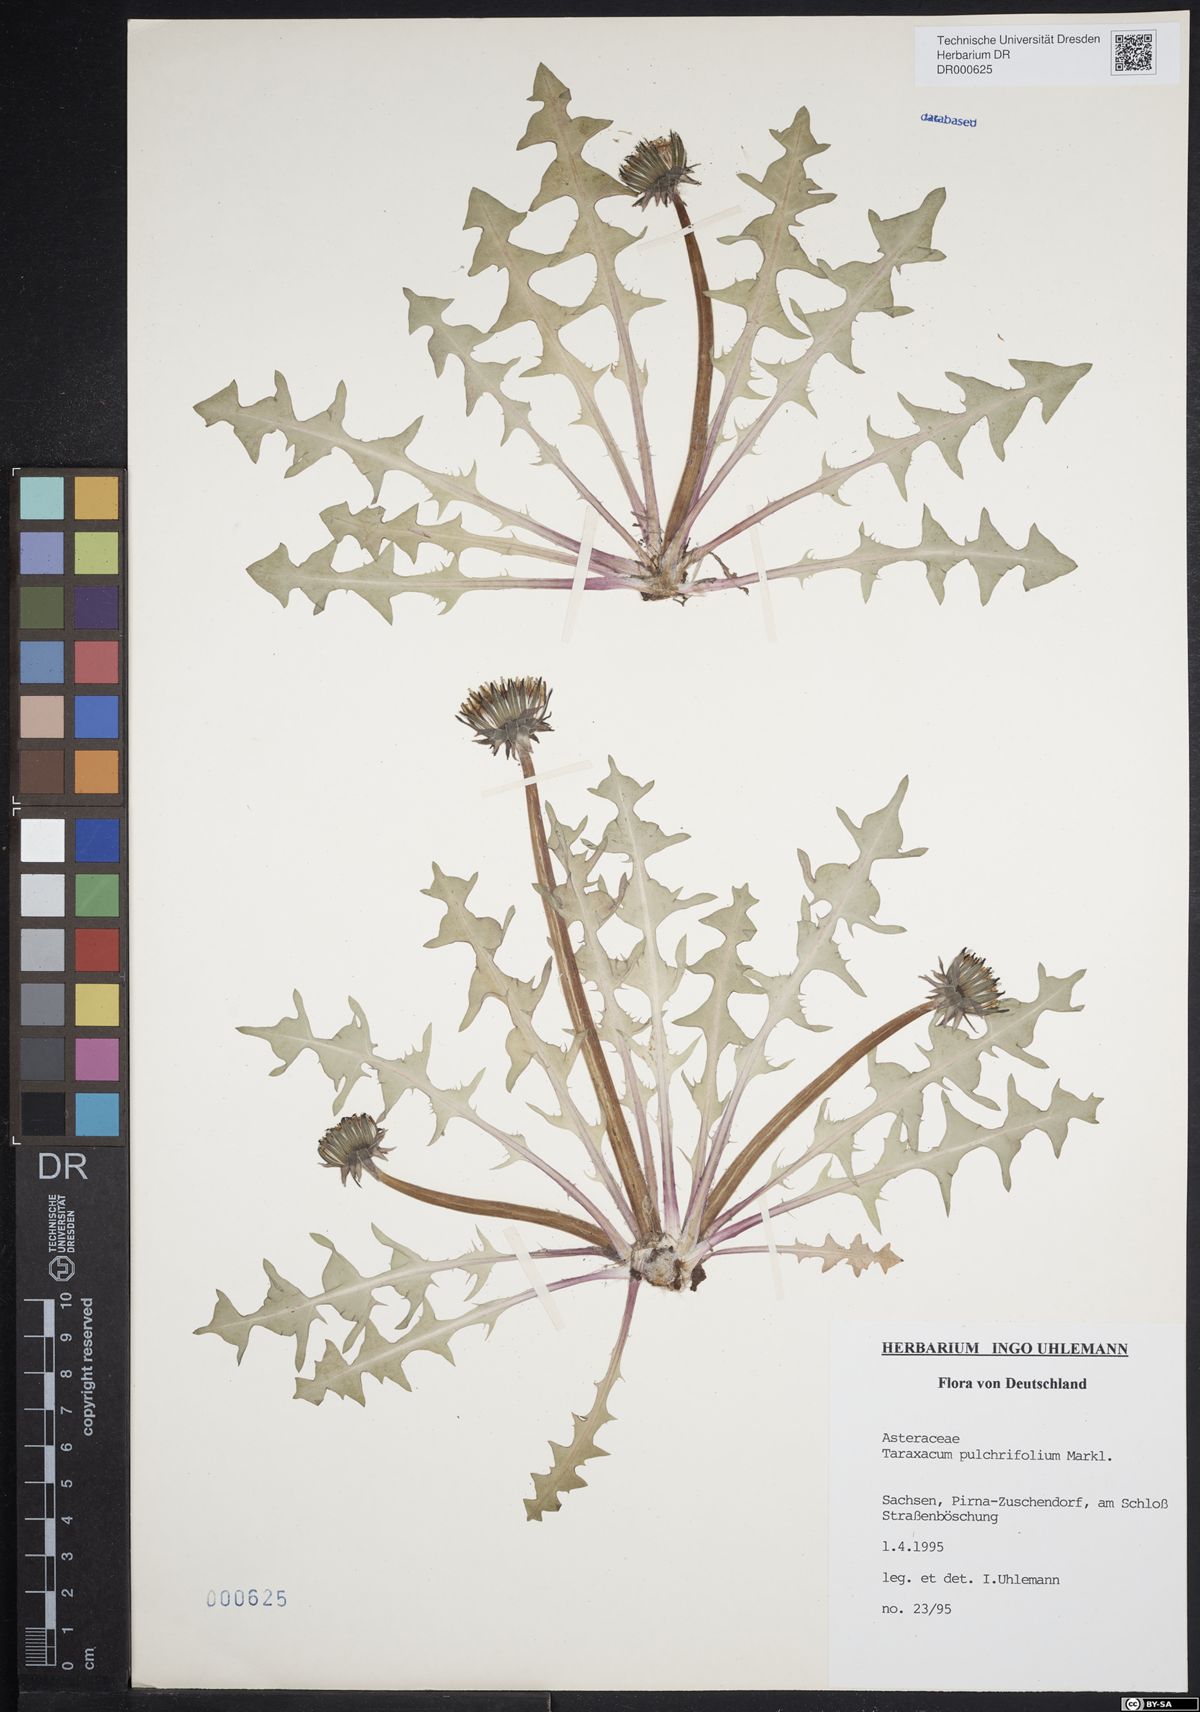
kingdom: Plantae
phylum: Tracheophyta
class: Magnoliopsida
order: Asterales
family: Asteraceae
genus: Taraxacum
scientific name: Taraxacum pulchrifolium
